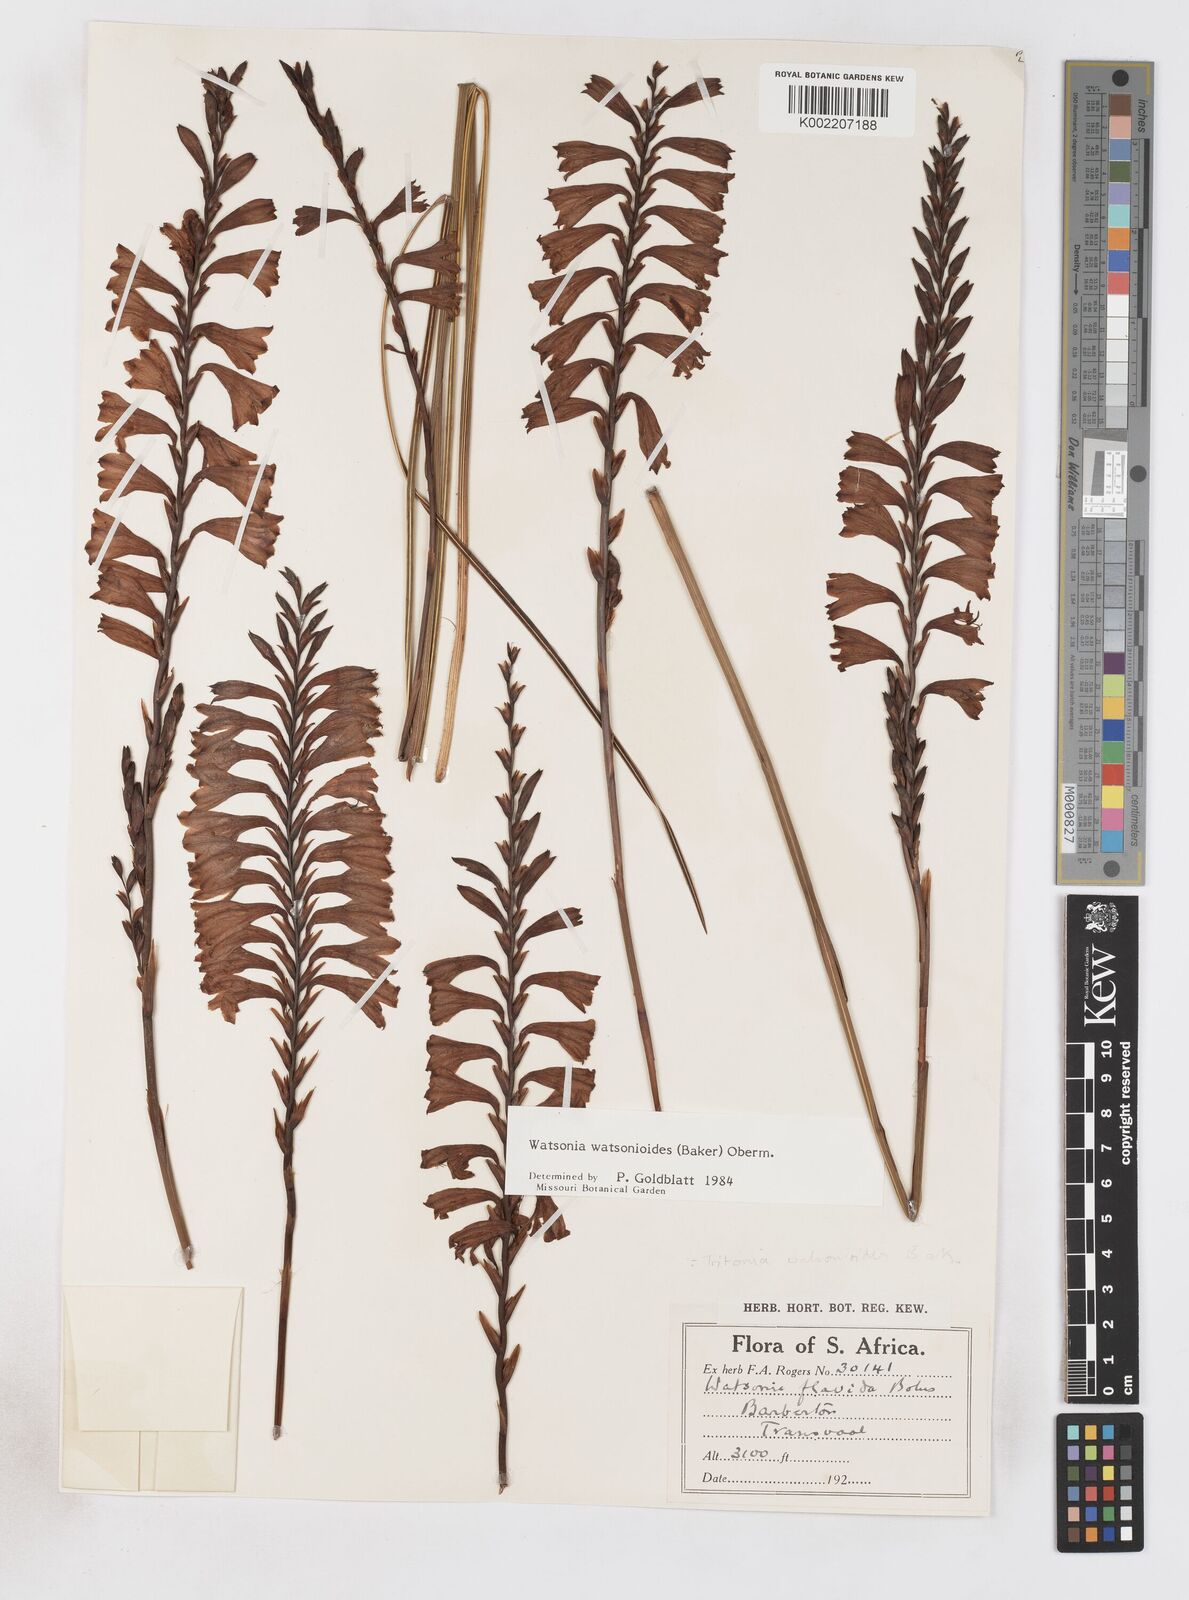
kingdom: Plantae
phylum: Tracheophyta
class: Liliopsida
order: Asparagales
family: Iridaceae
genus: Watsonia
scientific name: Watsonia watsonioides
